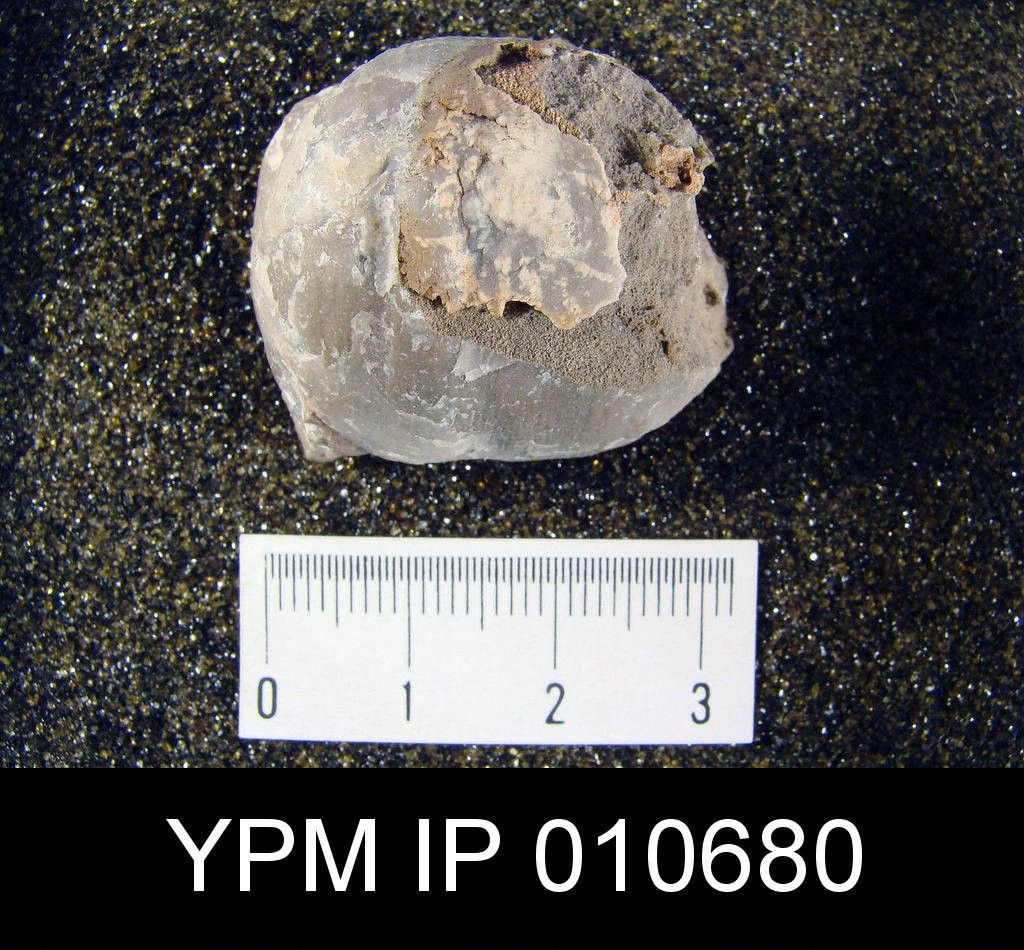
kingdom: Animalia
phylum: Brachiopoda
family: Productidae
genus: Productus
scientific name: Productus
